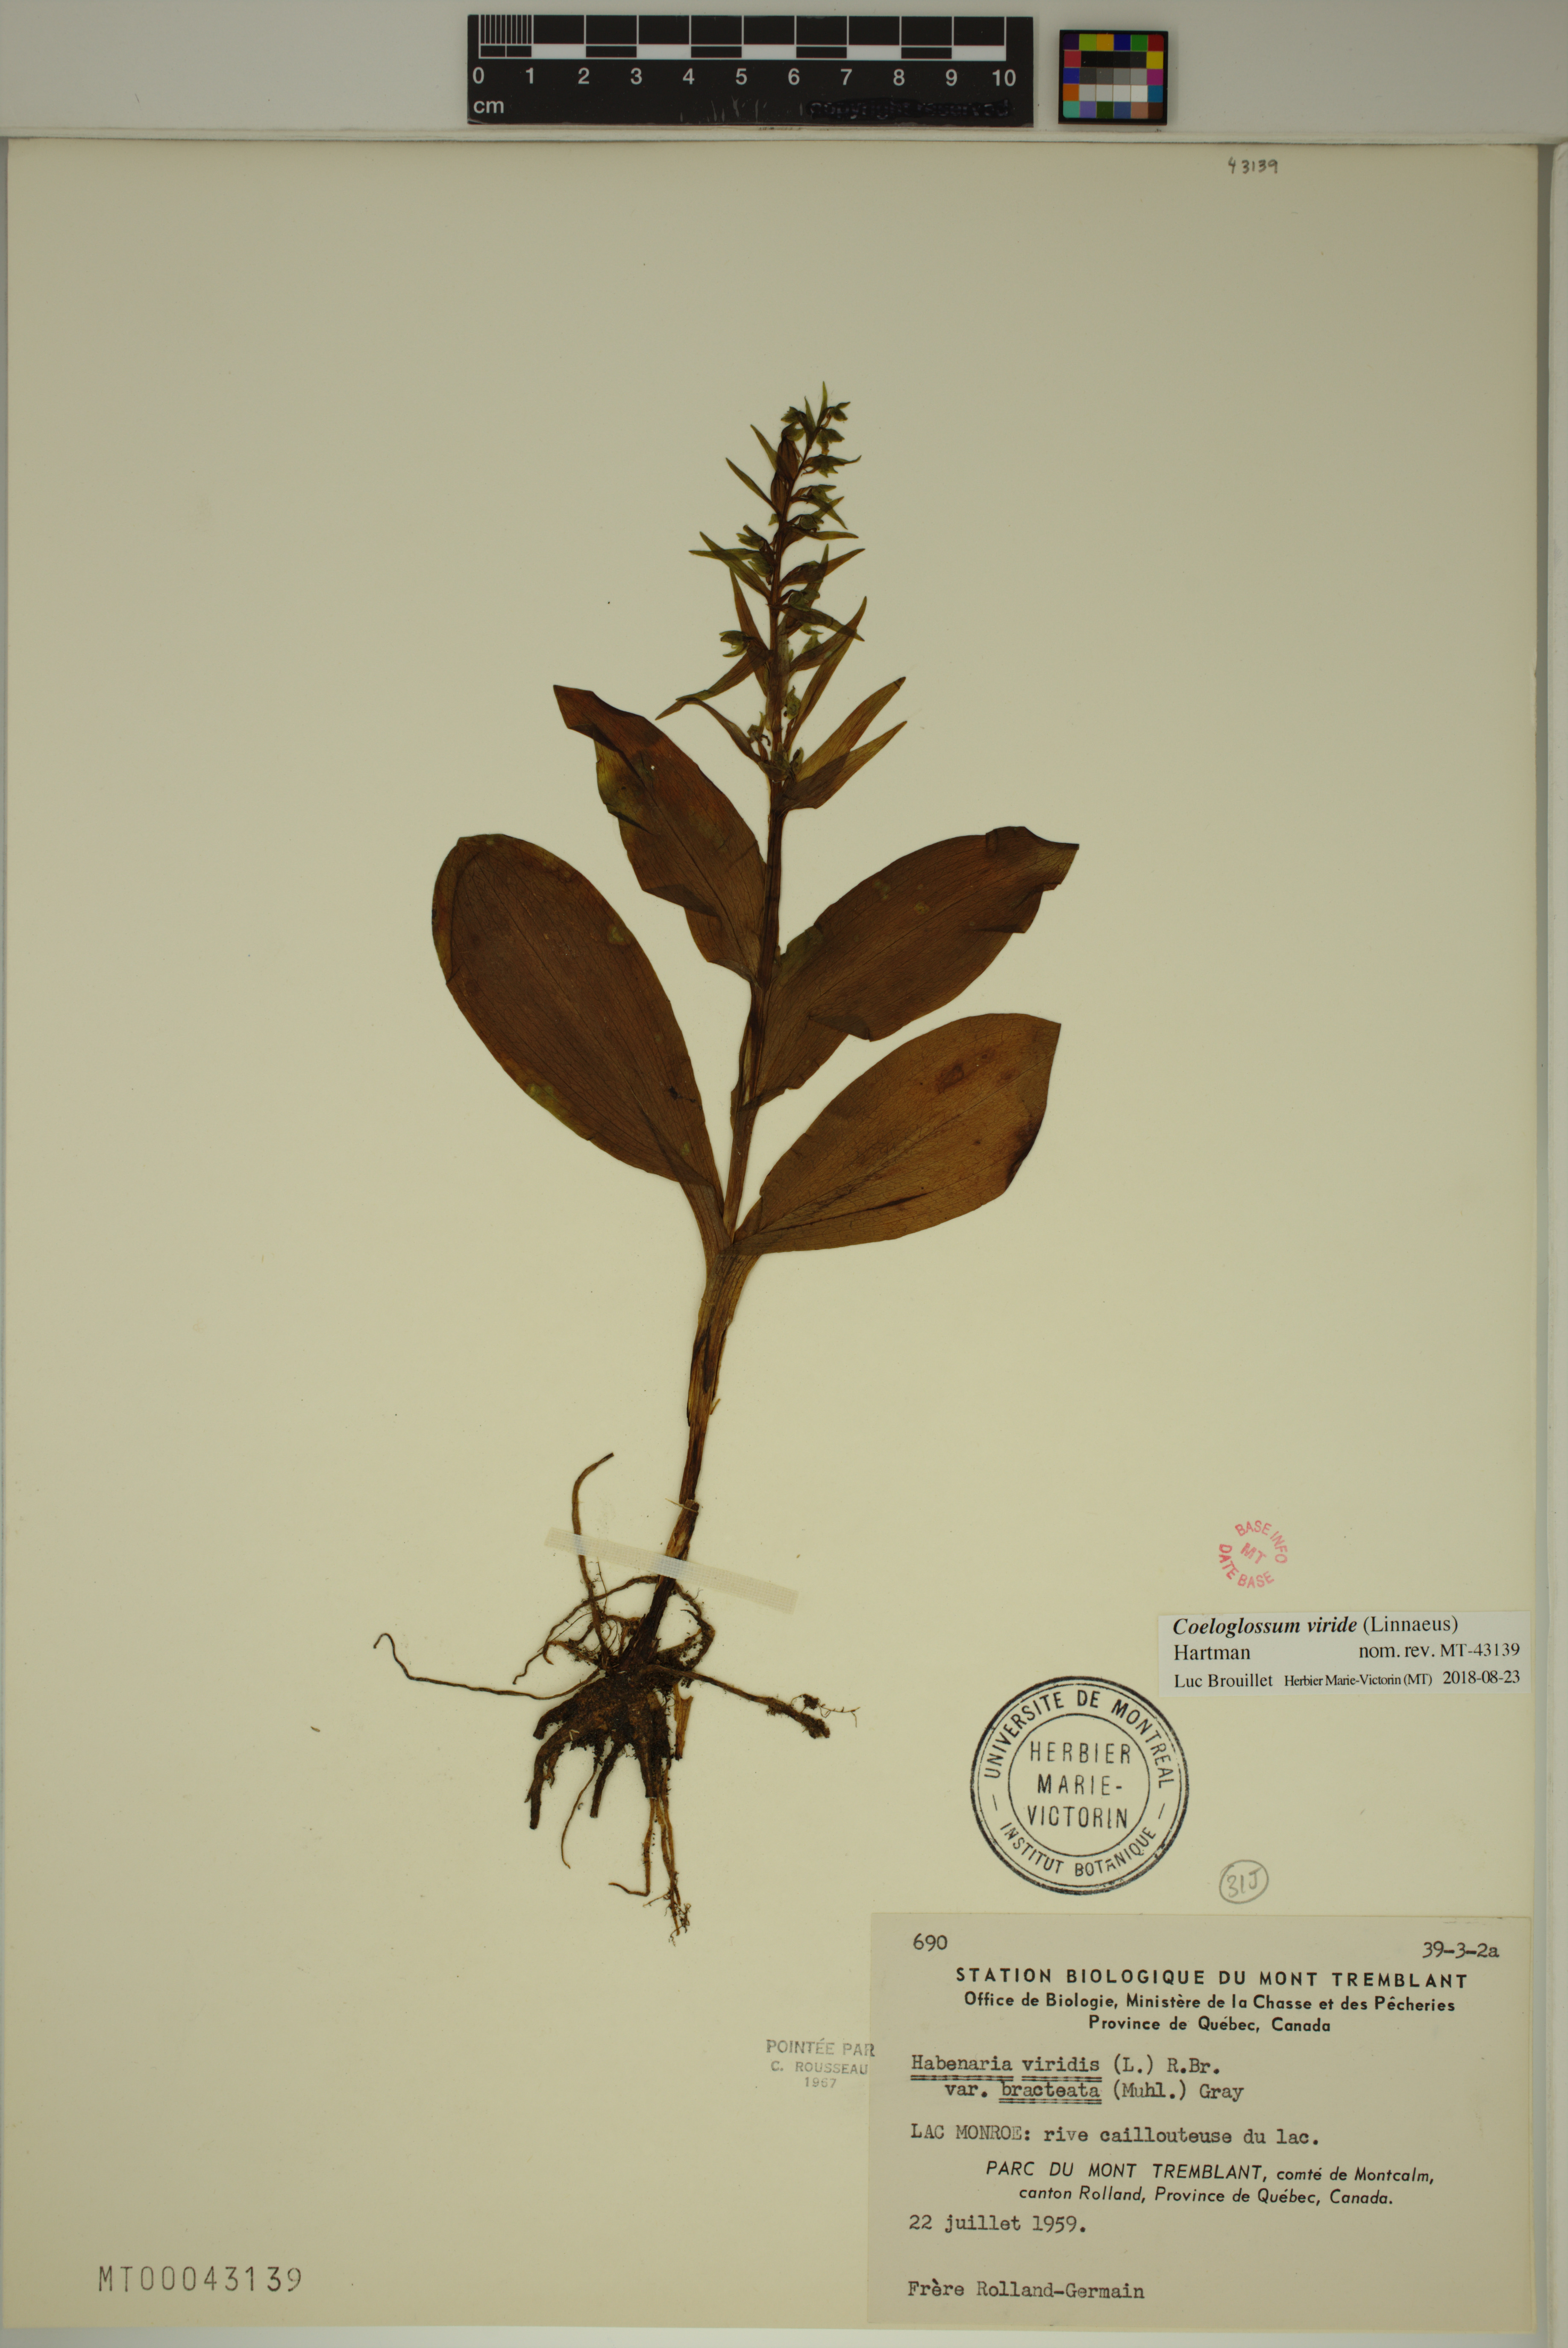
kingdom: Plantae
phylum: Tracheophyta
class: Liliopsida
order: Asparagales
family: Orchidaceae
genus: Dactylorhiza
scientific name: Dactylorhiza viridis
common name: Longbract frog orchid
